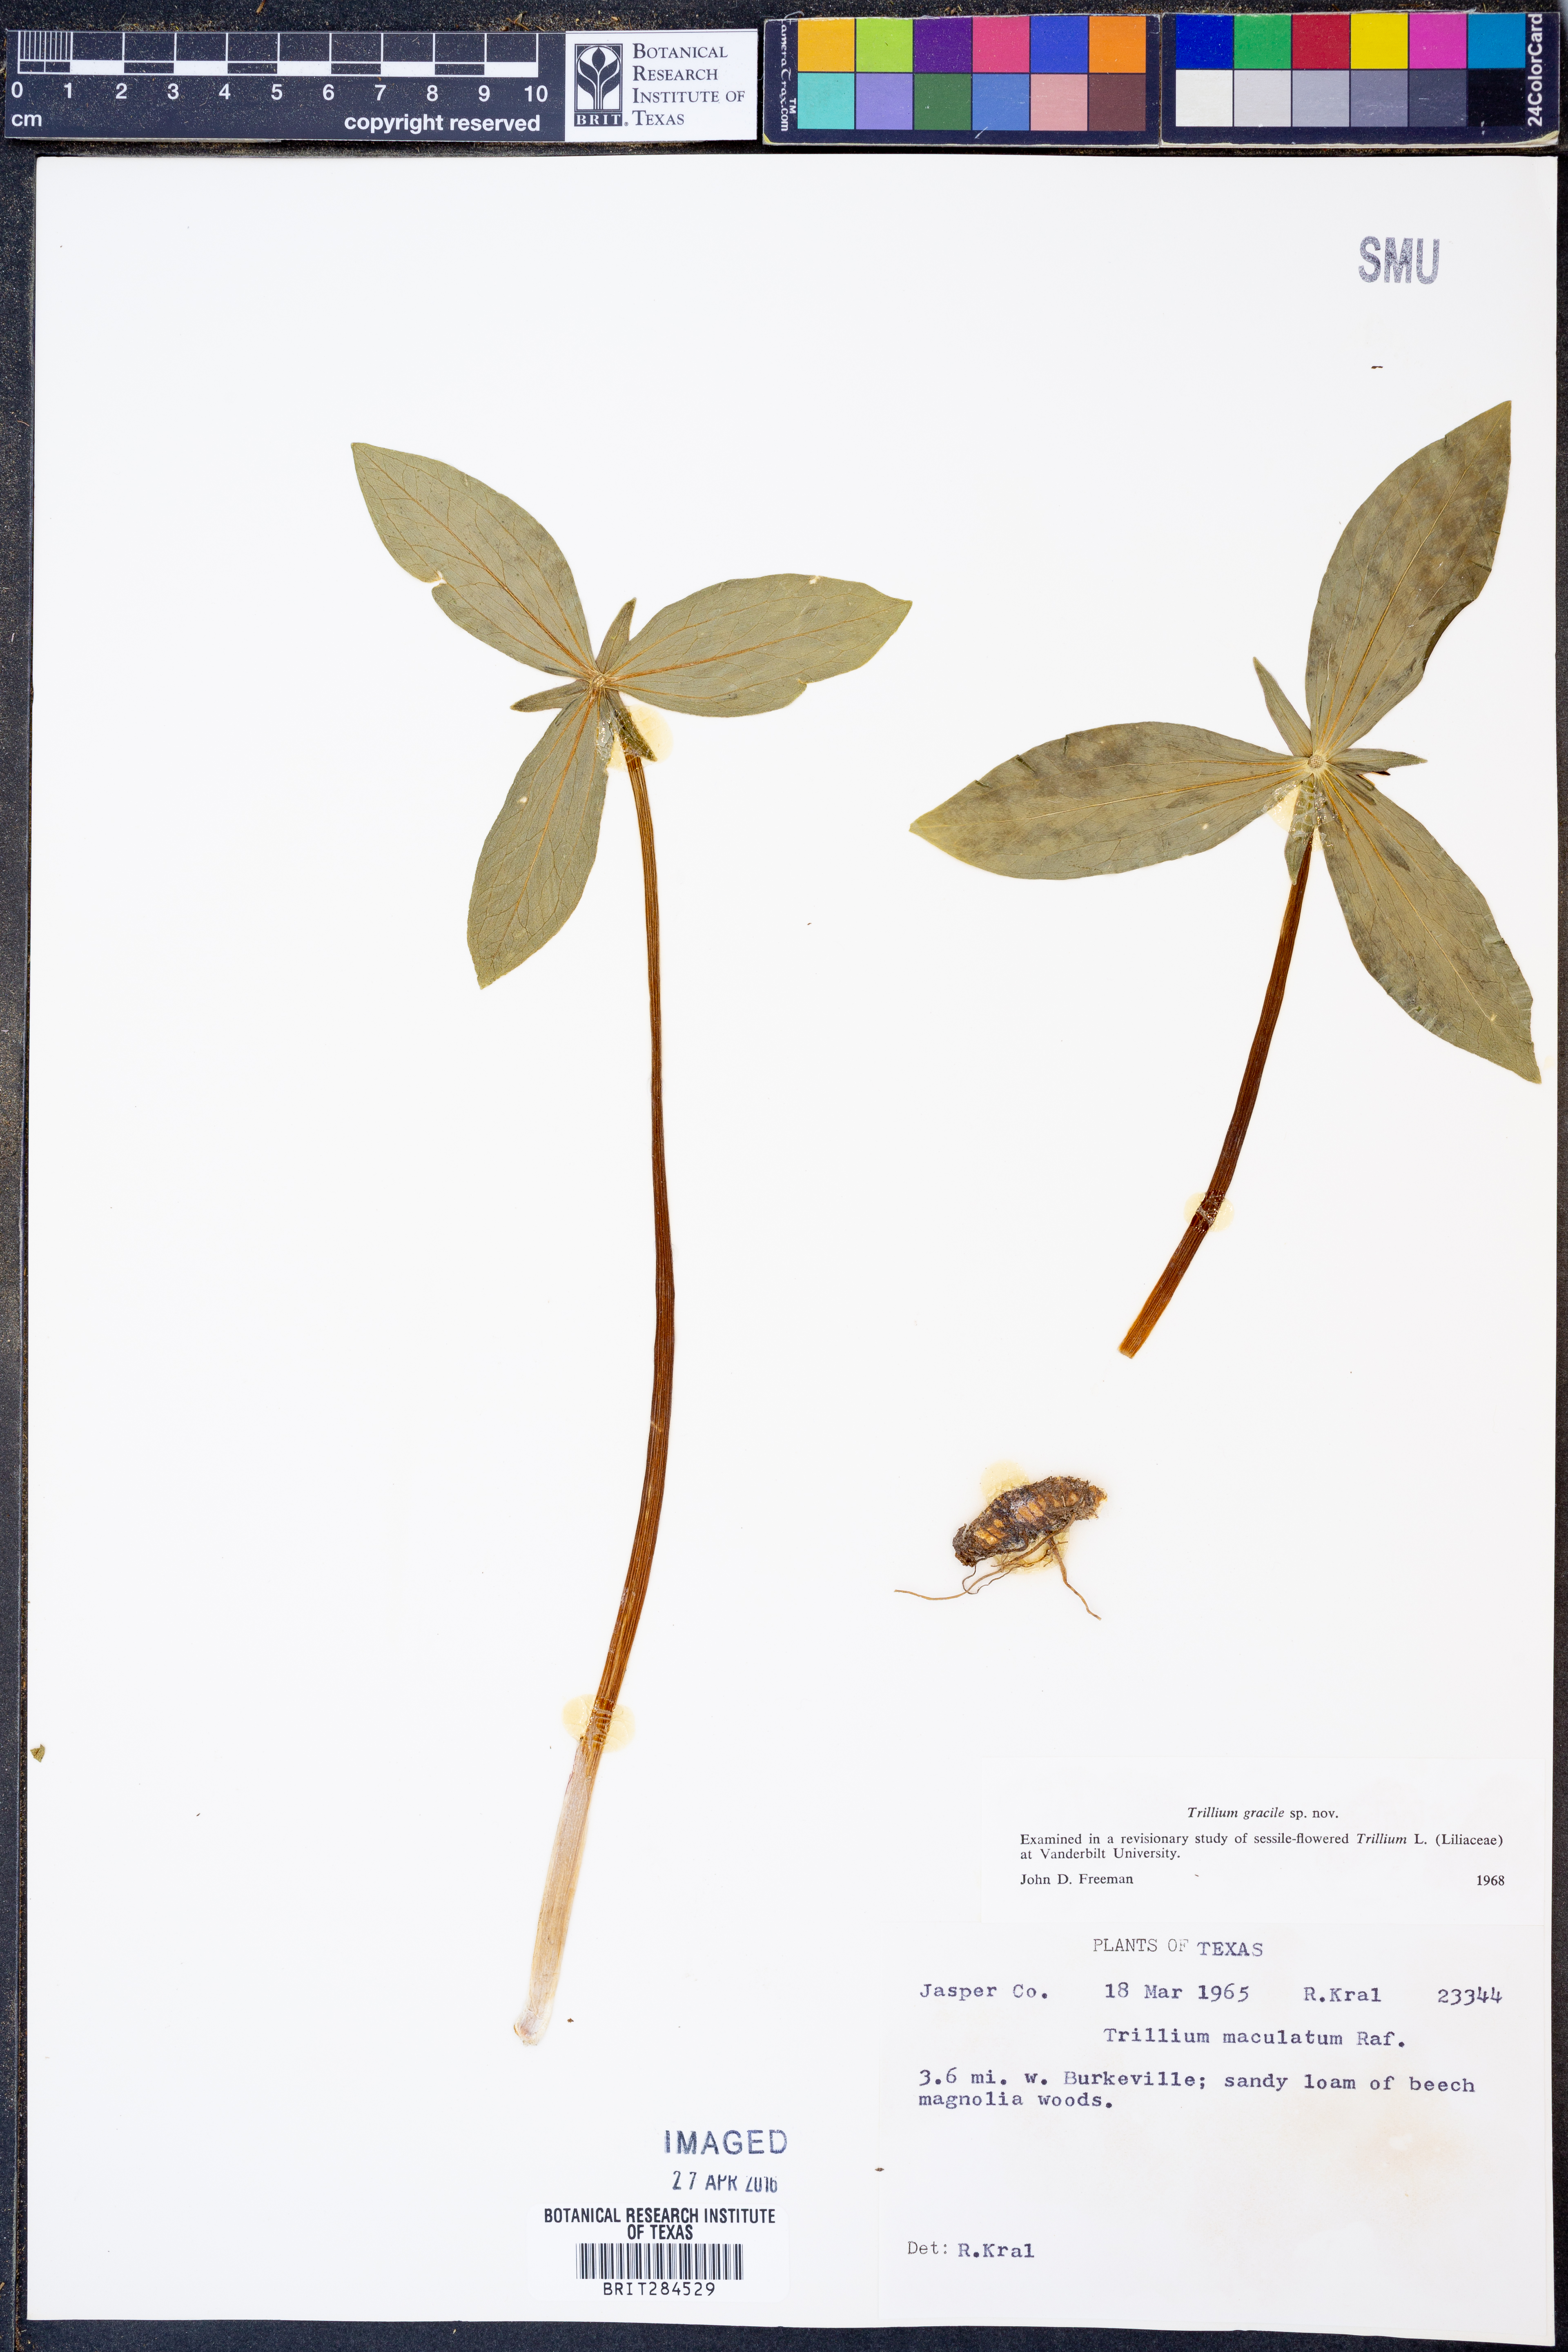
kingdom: Plantae
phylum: Tracheophyta
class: Liliopsida
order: Liliales
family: Melanthiaceae
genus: Trillium
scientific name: Trillium gracile
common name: Graceful trillium
